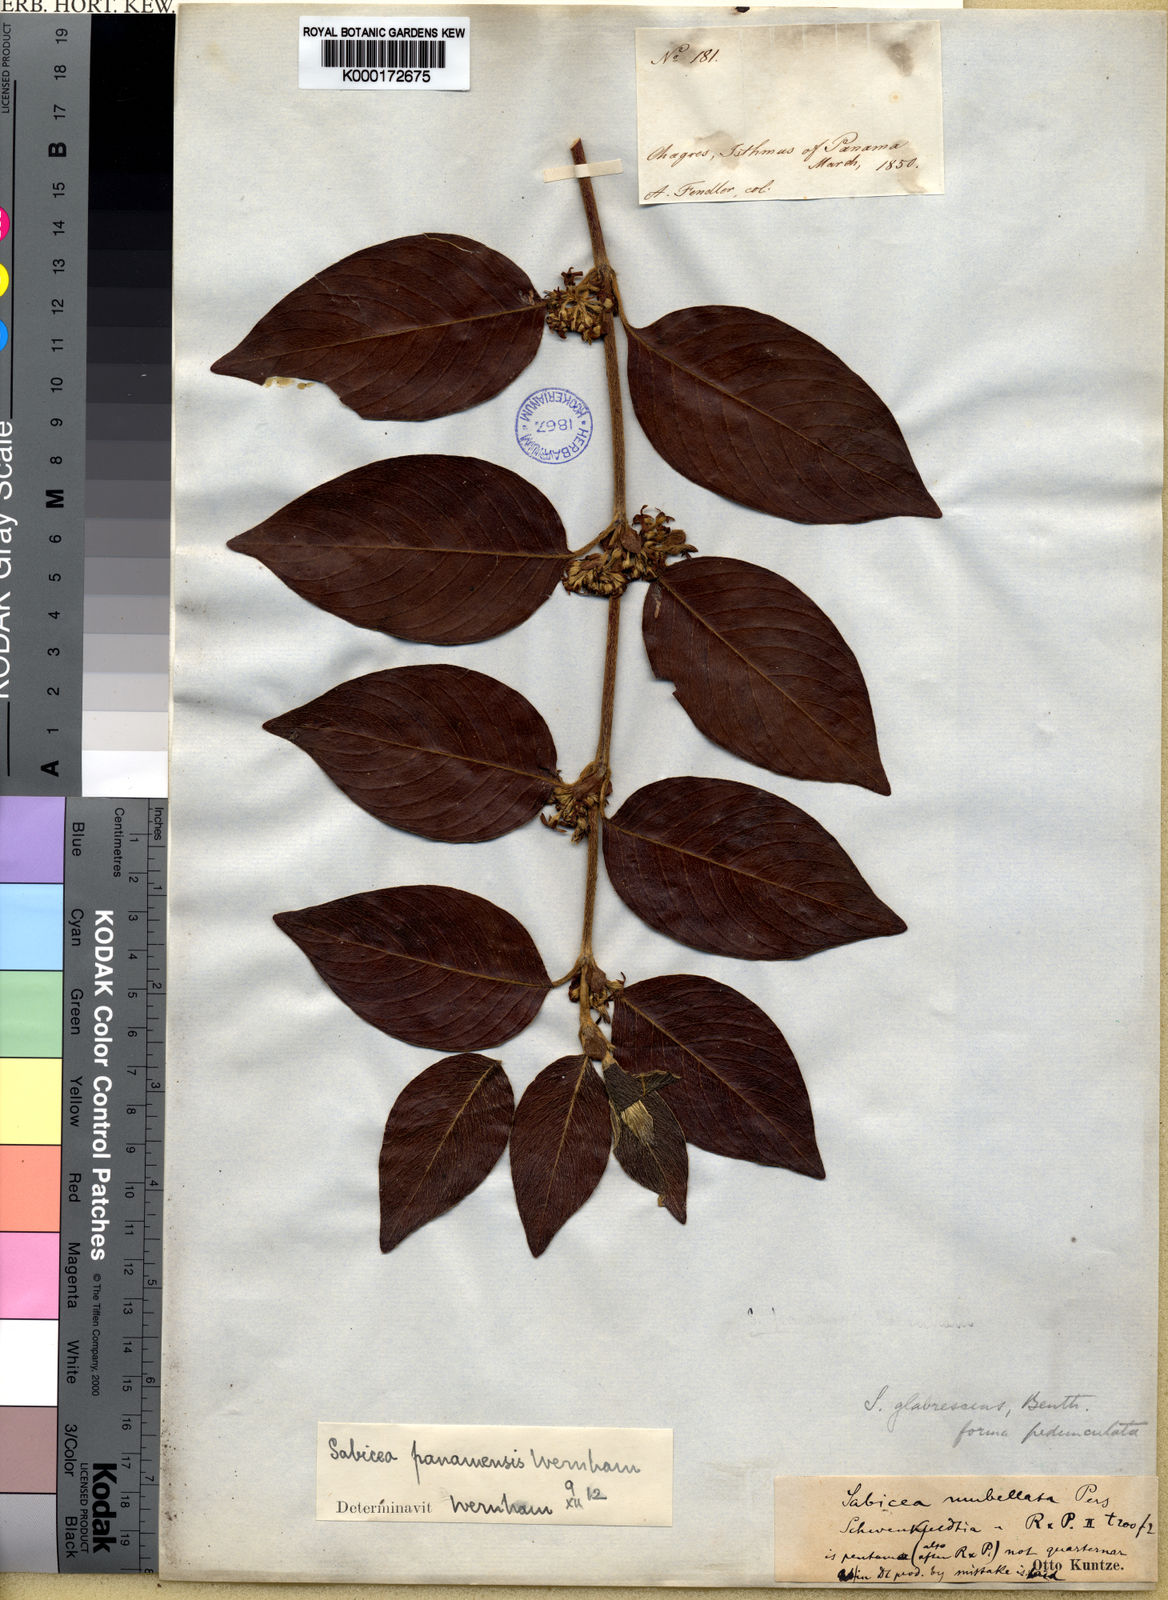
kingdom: Plantae
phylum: Tracheophyta
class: Magnoliopsida
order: Gentianales
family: Rubiaceae
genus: Sabicea
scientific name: Sabicea panamensis
